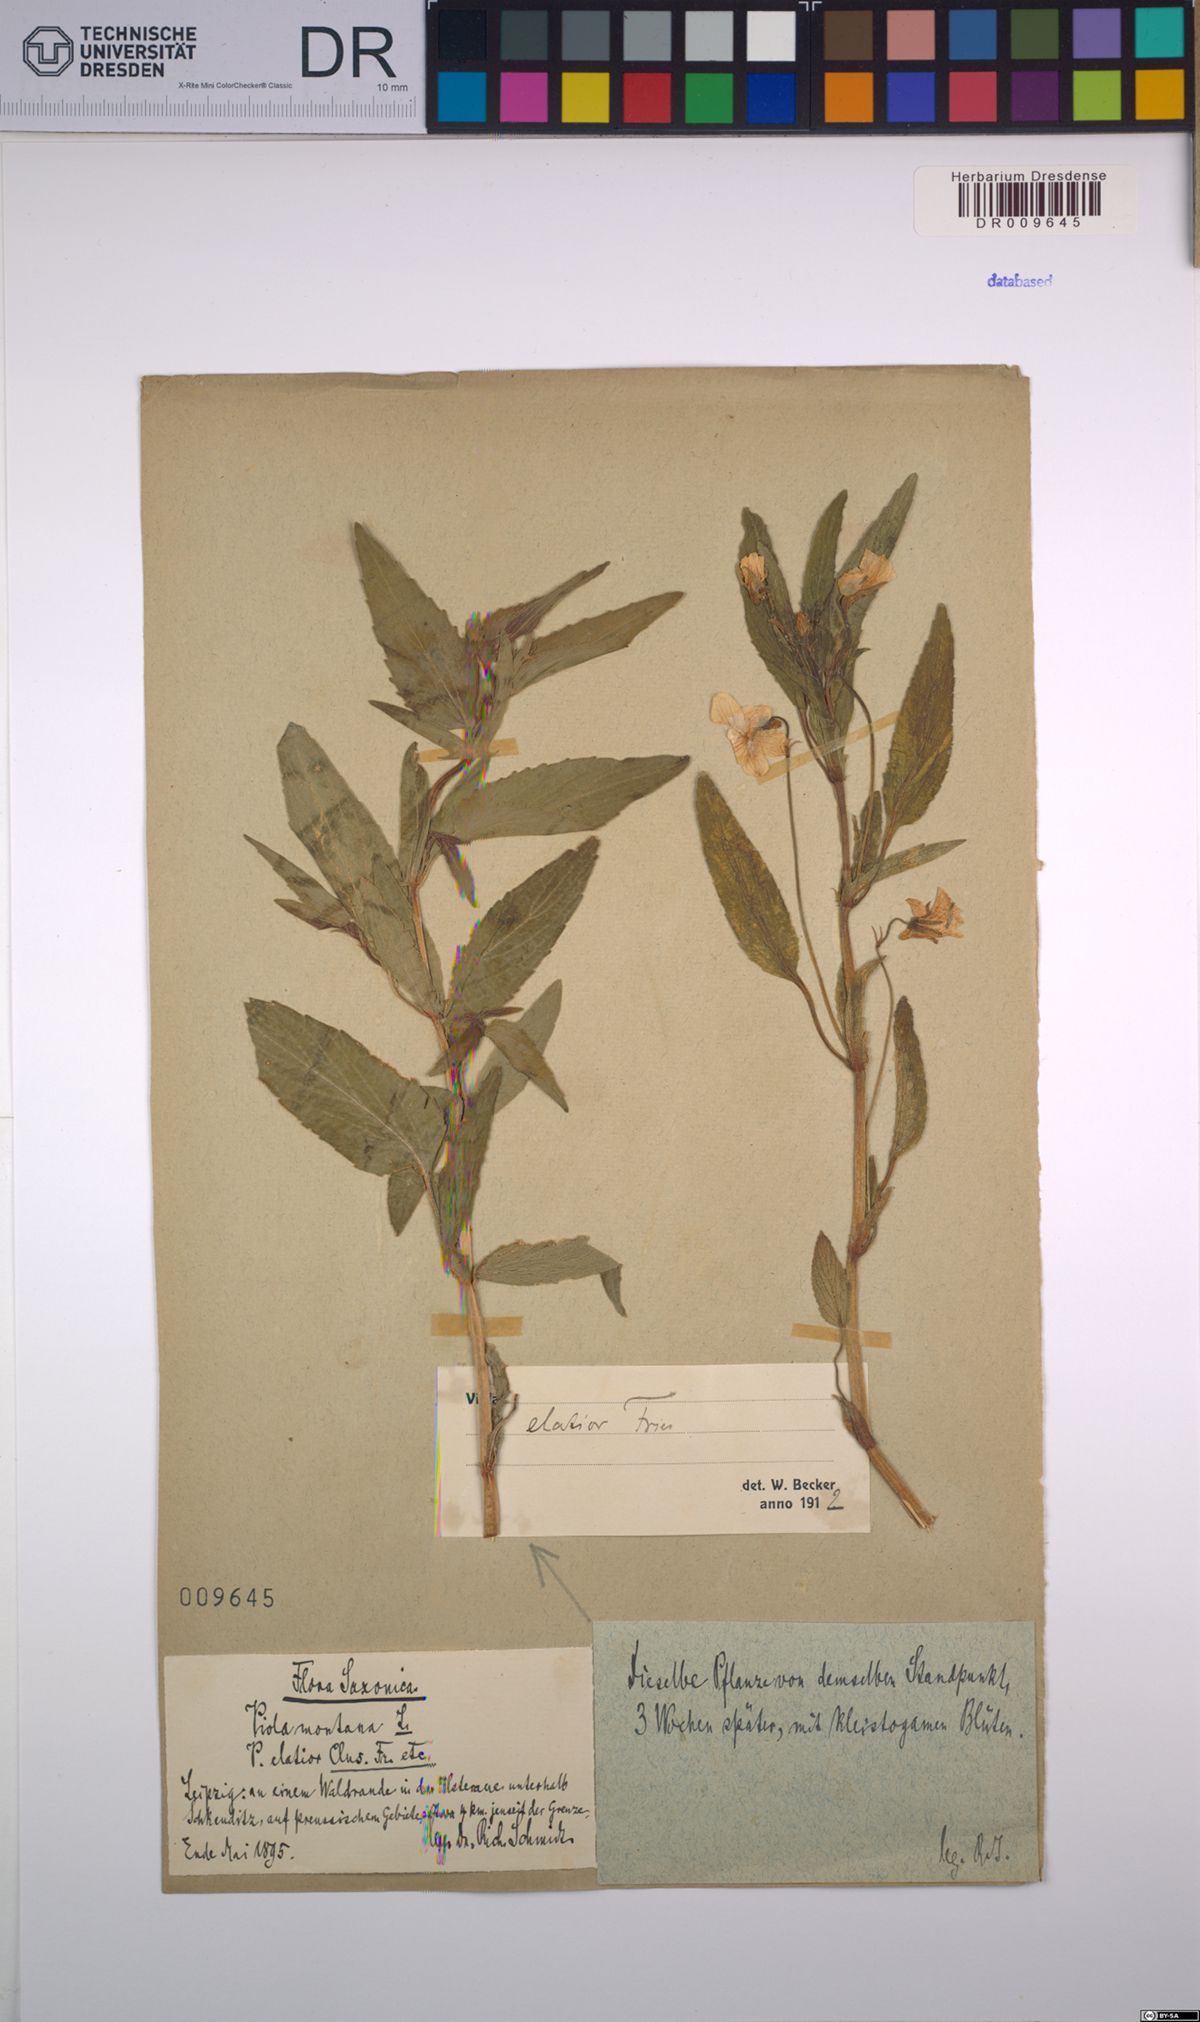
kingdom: Plantae
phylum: Tracheophyta
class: Magnoliopsida
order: Malpighiales
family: Violaceae
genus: Viola
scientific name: Viola elatior
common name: Tall violet
